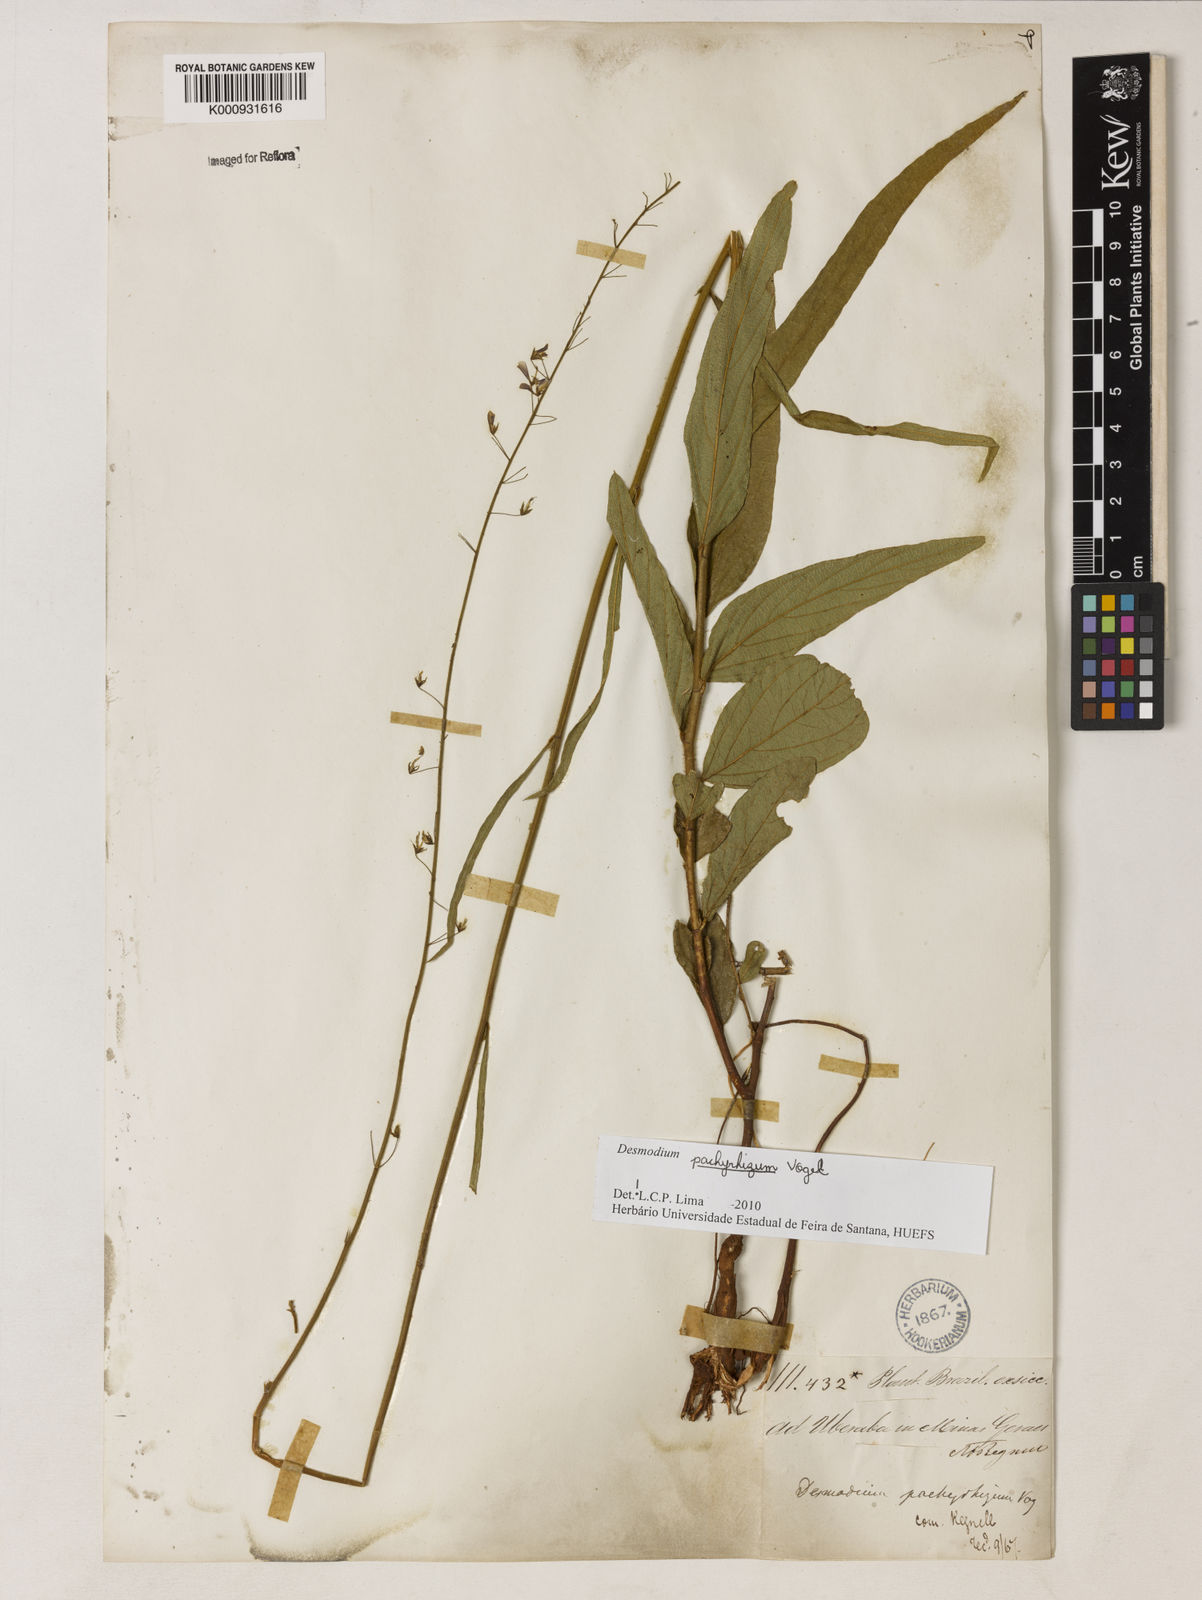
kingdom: Plantae
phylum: Tracheophyta
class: Magnoliopsida
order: Fabales
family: Fabaceae
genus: Desmodium
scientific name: Desmodium pachyrhizum
